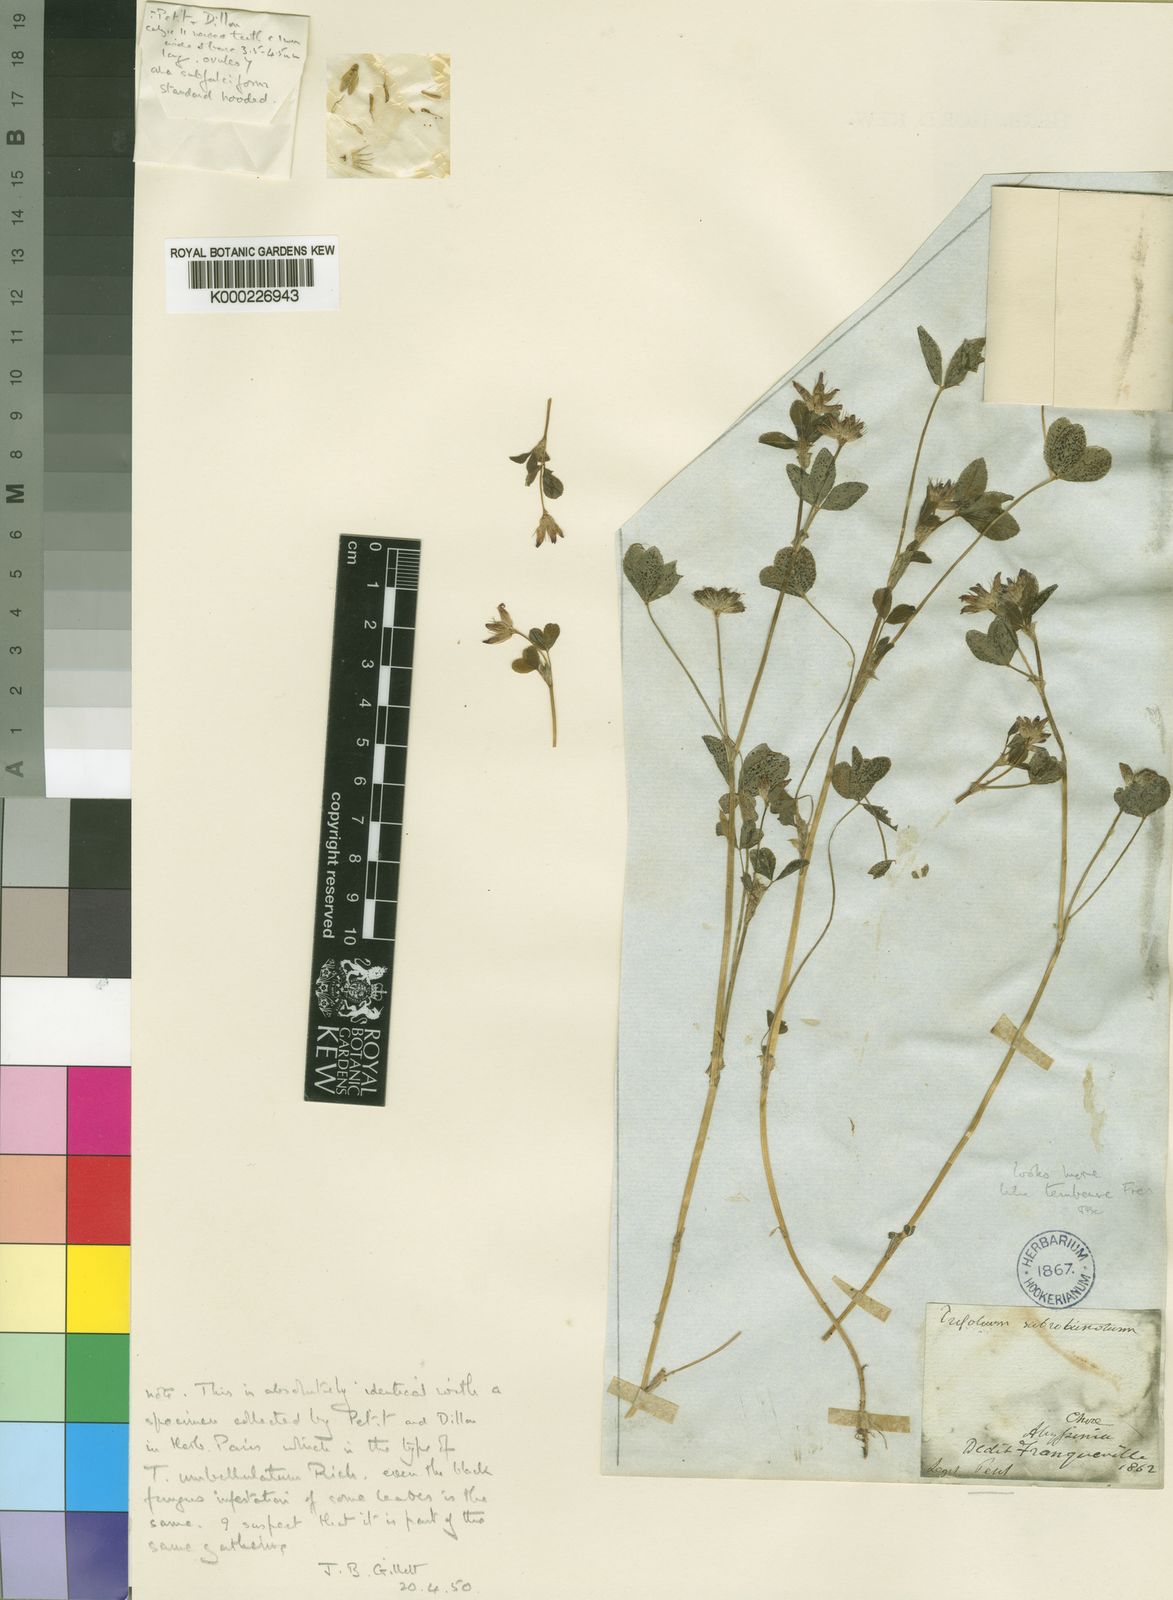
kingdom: Plantae
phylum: Tracheophyta
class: Magnoliopsida
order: Fabales
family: Fabaceae
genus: Trifolium
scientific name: Trifolium tembense
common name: Tembien clover
